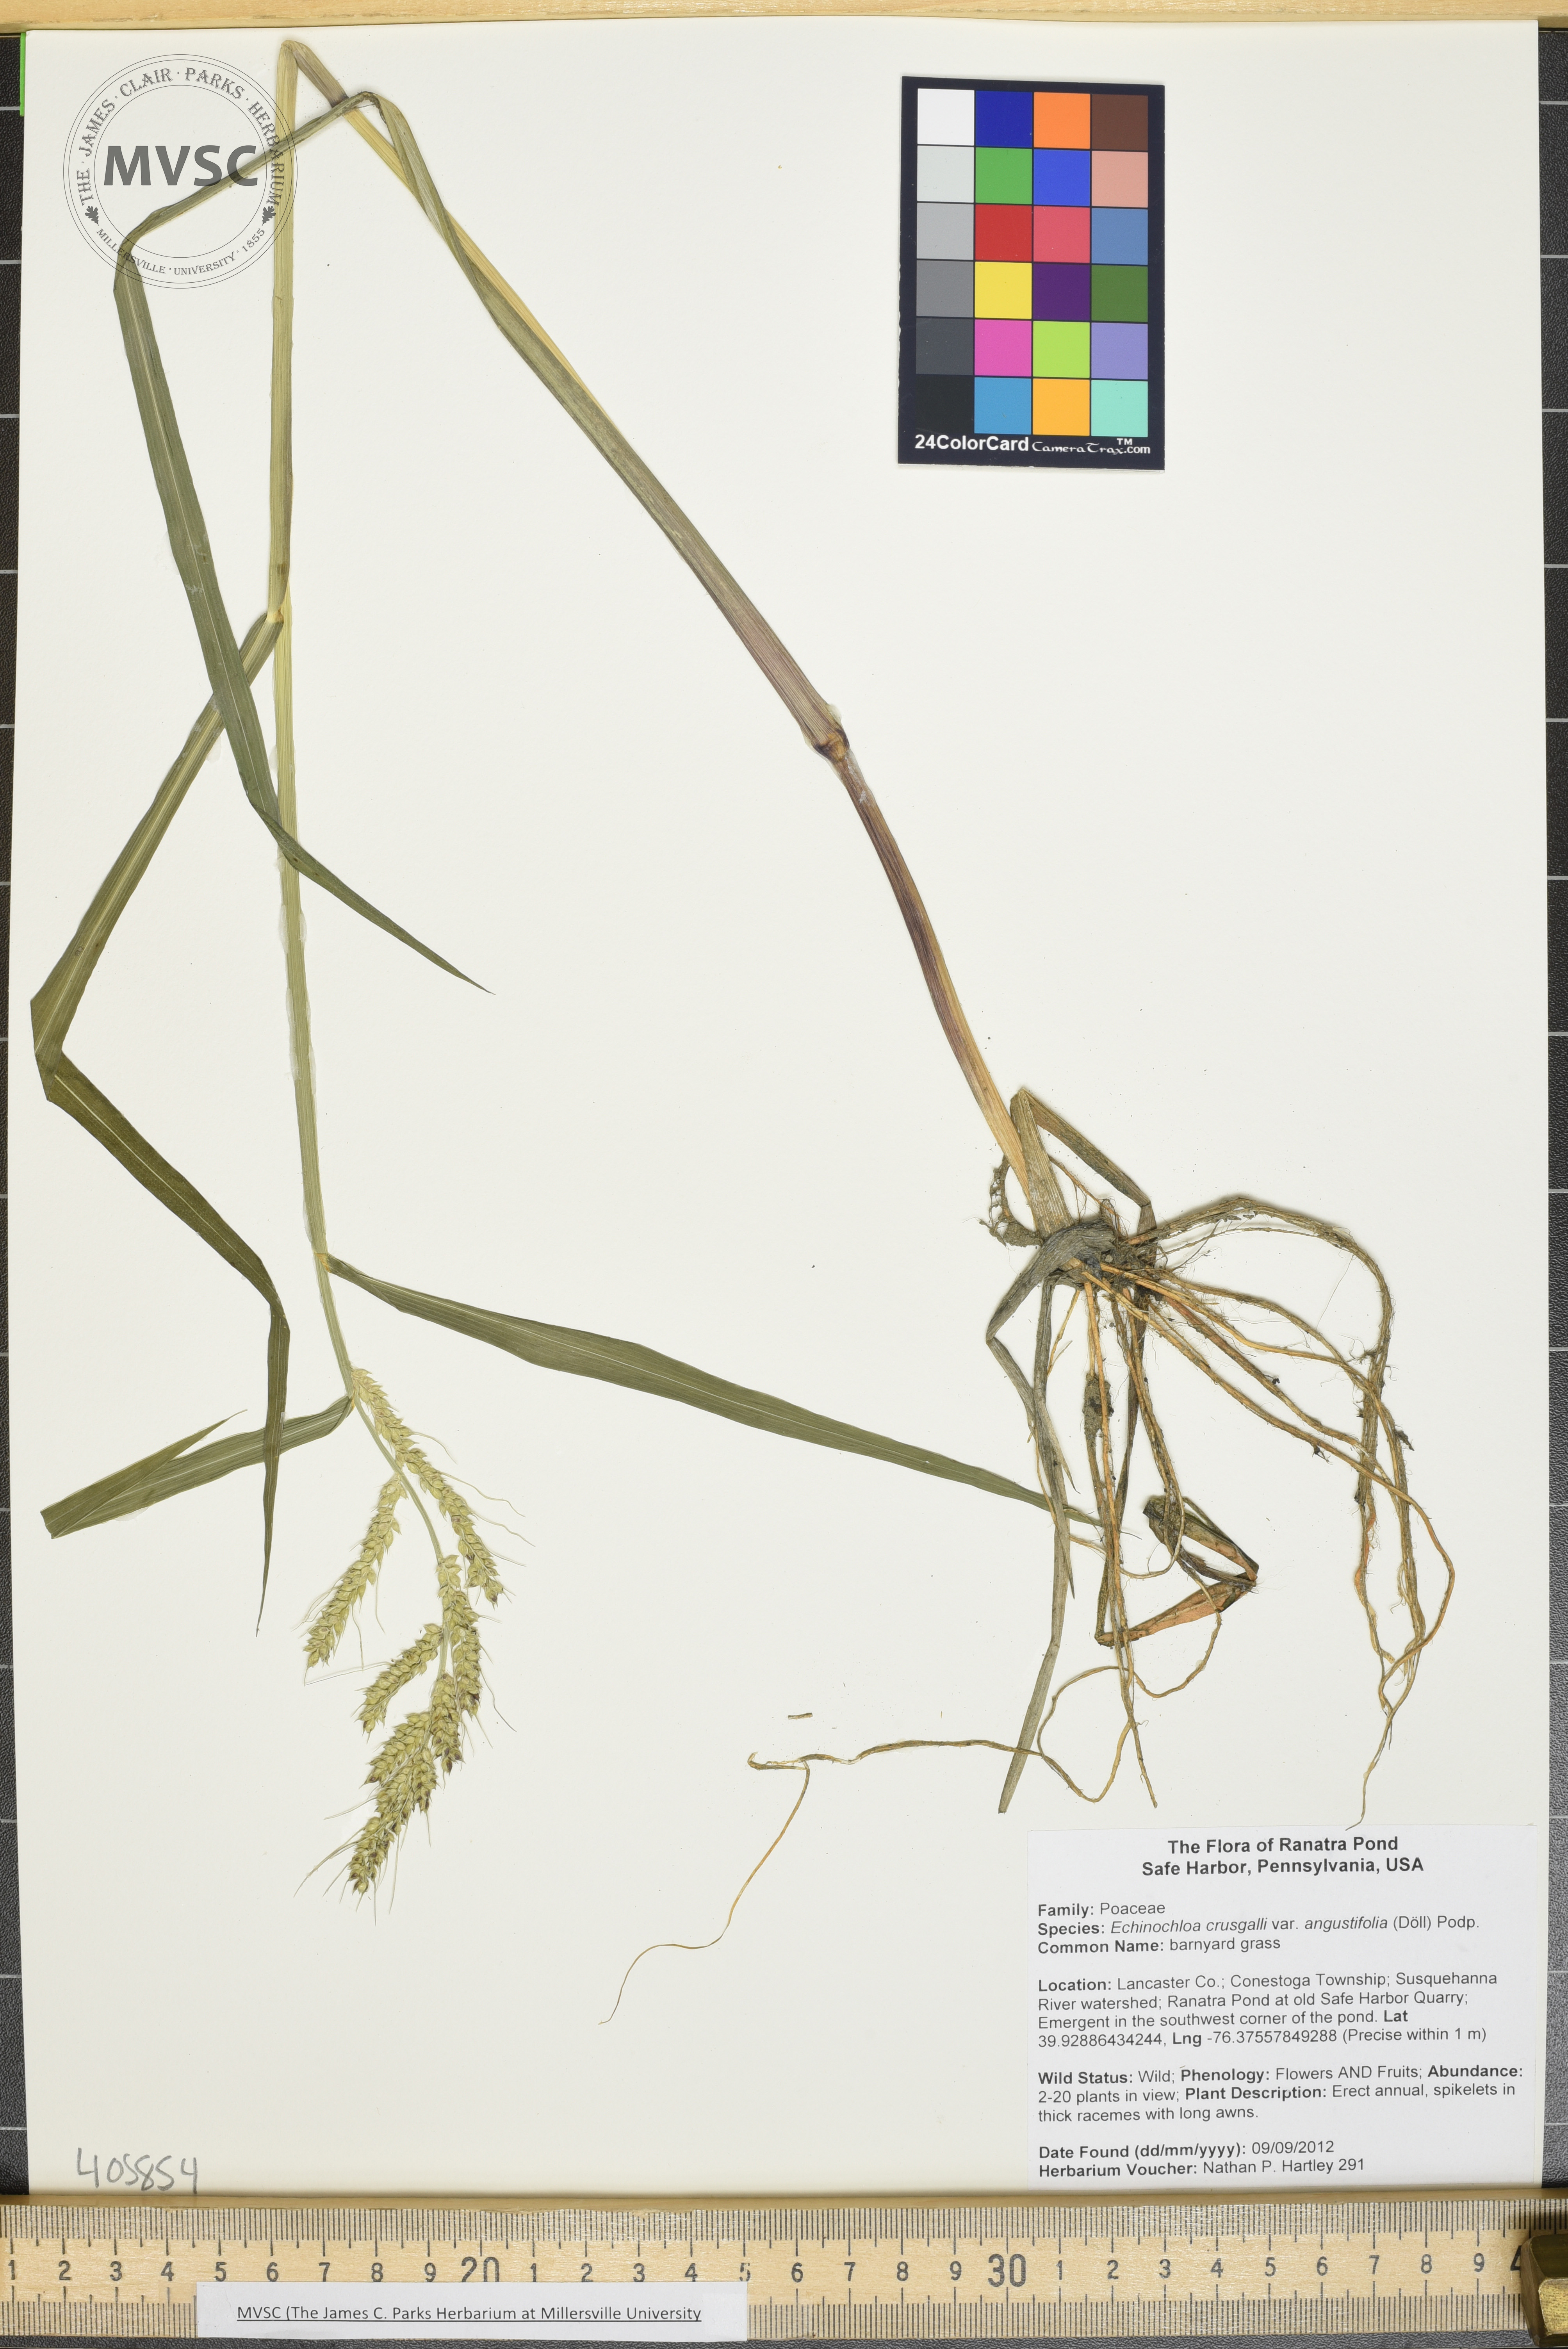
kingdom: Plantae
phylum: Tracheophyta
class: Liliopsida
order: Poales
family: Poaceae
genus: Echinochloa
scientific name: Echinochloa
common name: barnyard grass
